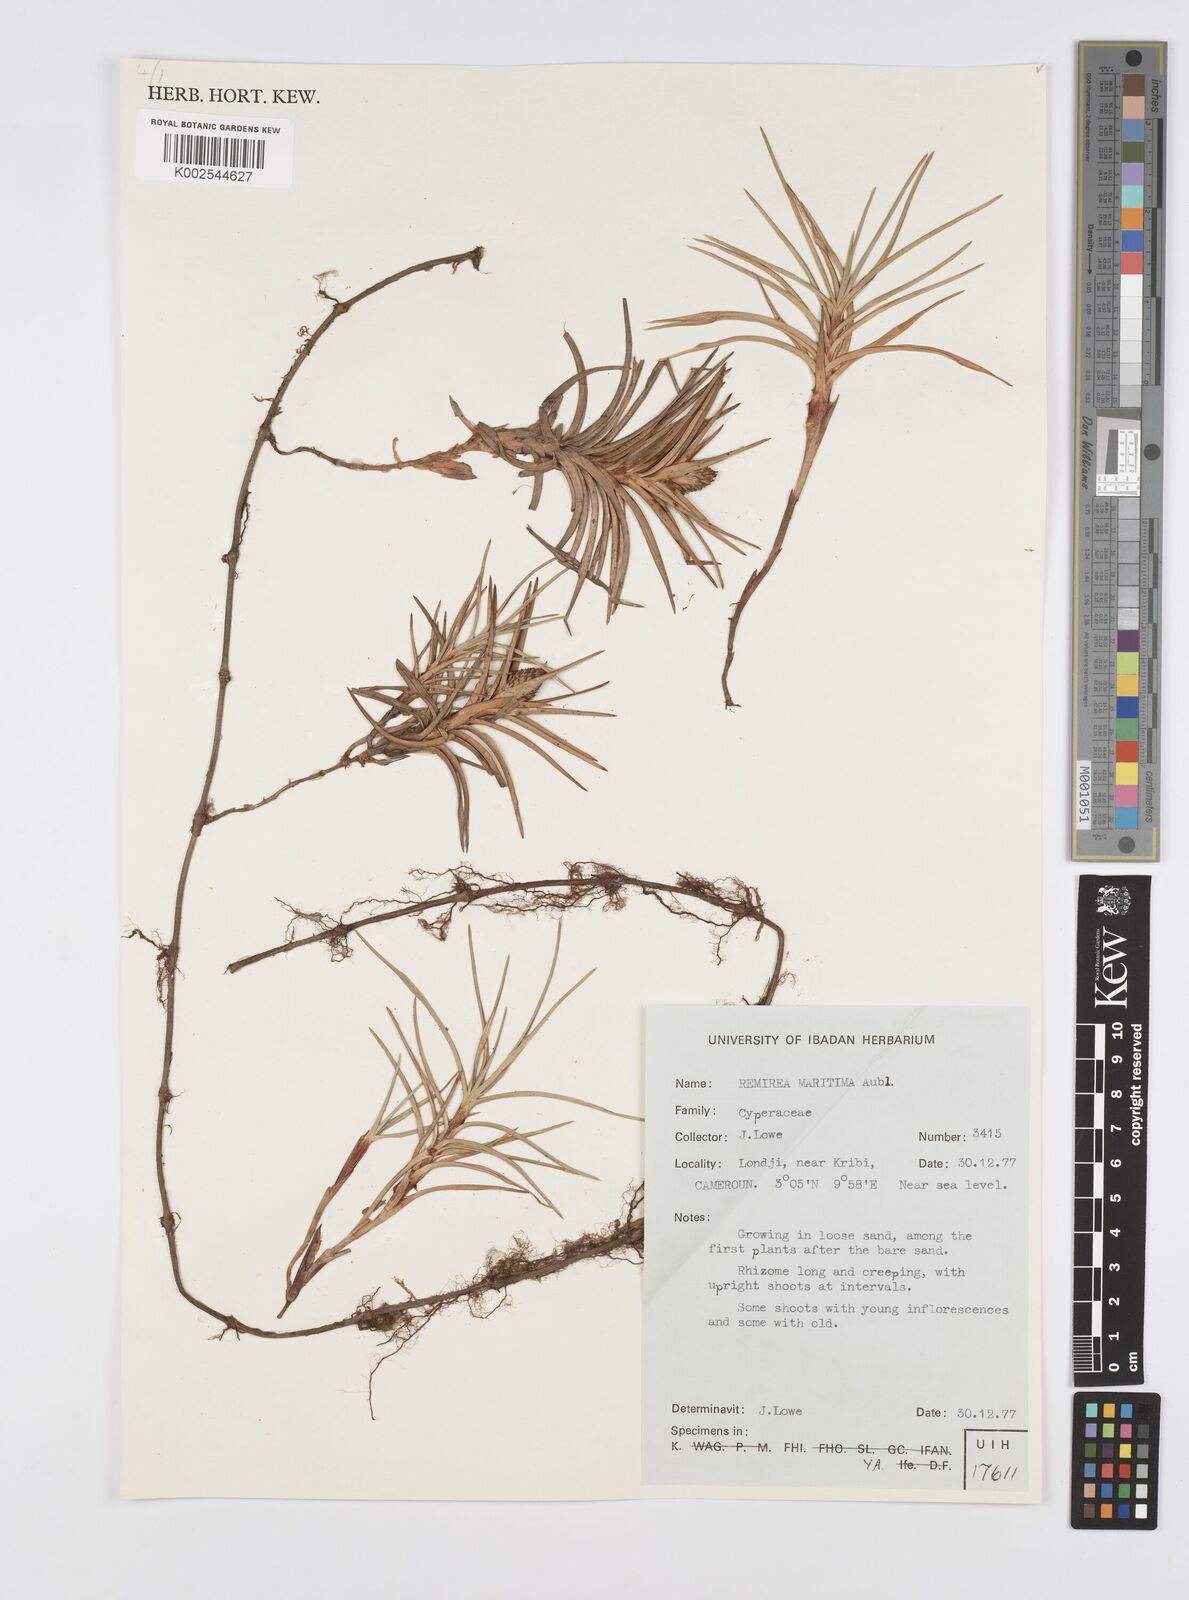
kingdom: Plantae
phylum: Tracheophyta
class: Liliopsida
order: Poales
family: Cyperaceae
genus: Cyperus
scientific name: Cyperus
